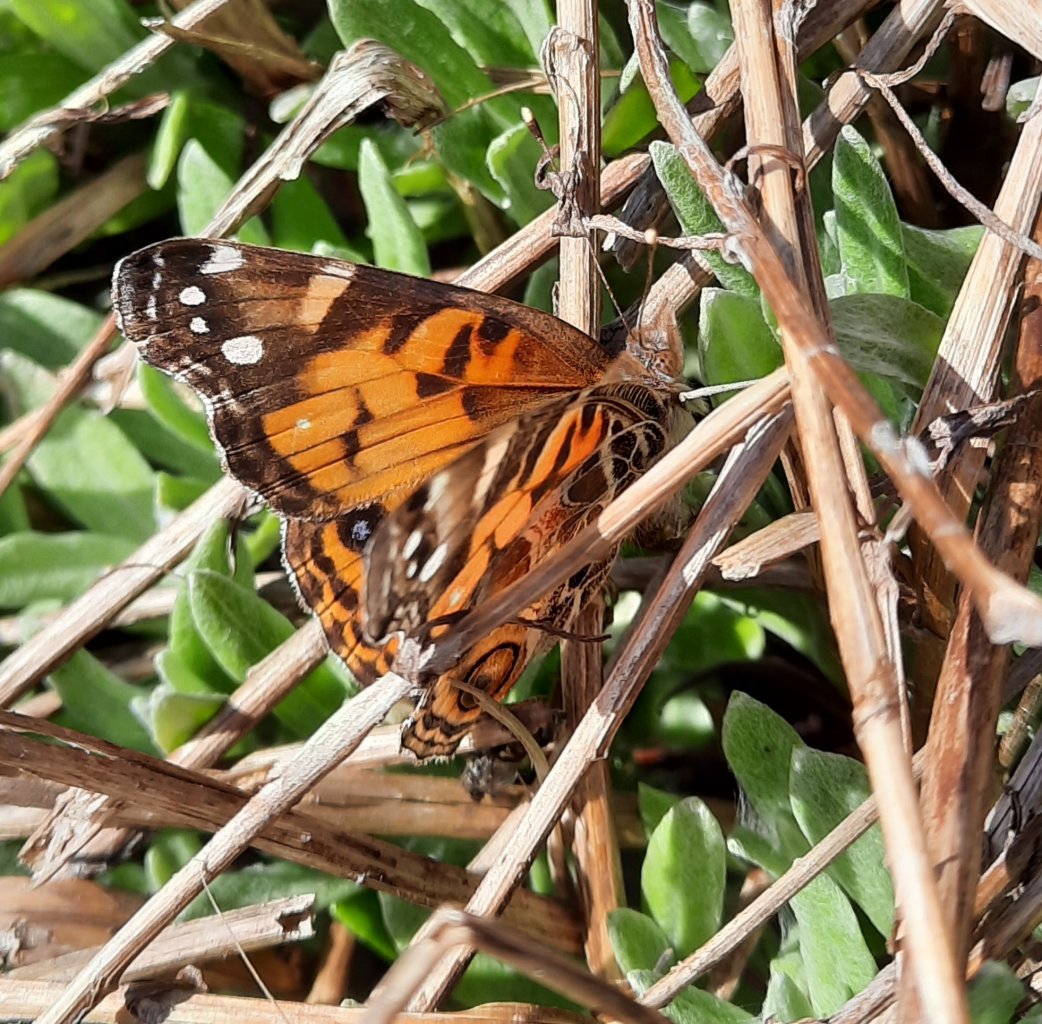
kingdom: Animalia
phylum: Arthropoda
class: Insecta
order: Lepidoptera
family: Nymphalidae
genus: Vanessa
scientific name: Vanessa virginiensis
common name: American Lady
